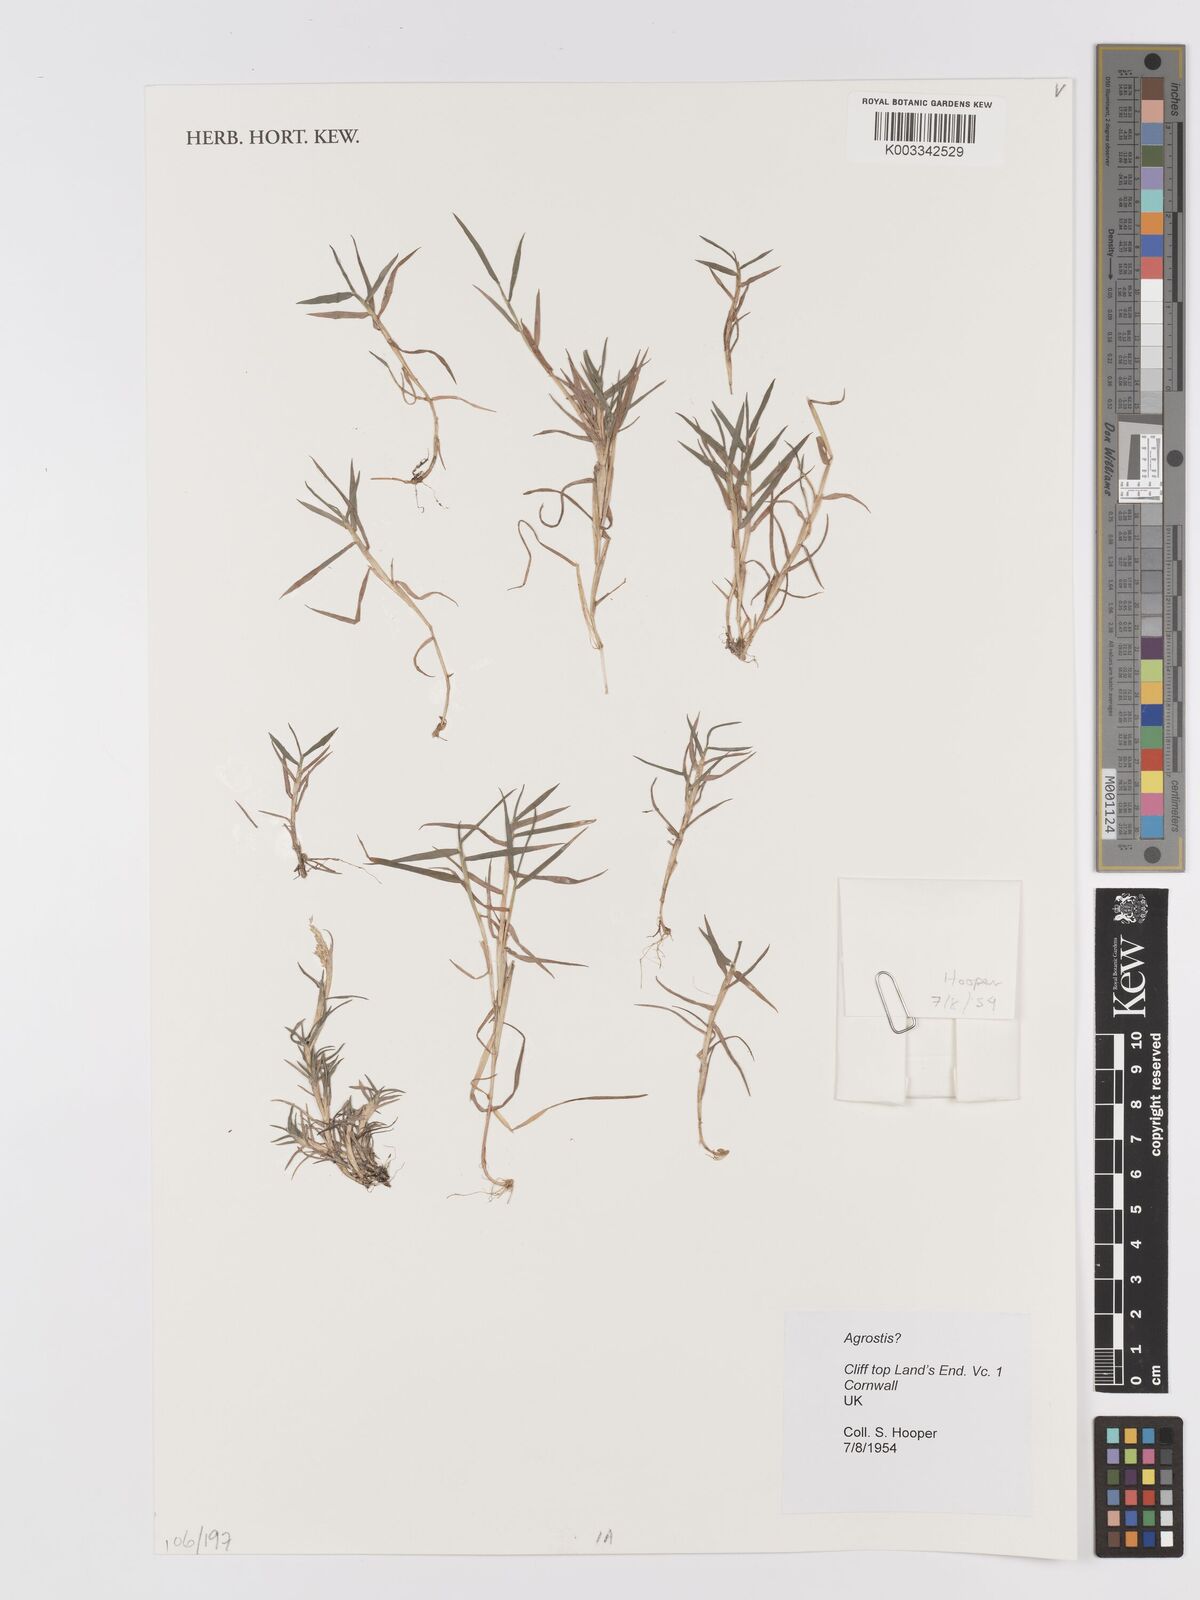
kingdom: Plantae
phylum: Tracheophyta
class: Liliopsida
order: Poales
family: Poaceae
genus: Agrostis
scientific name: Agrostis
